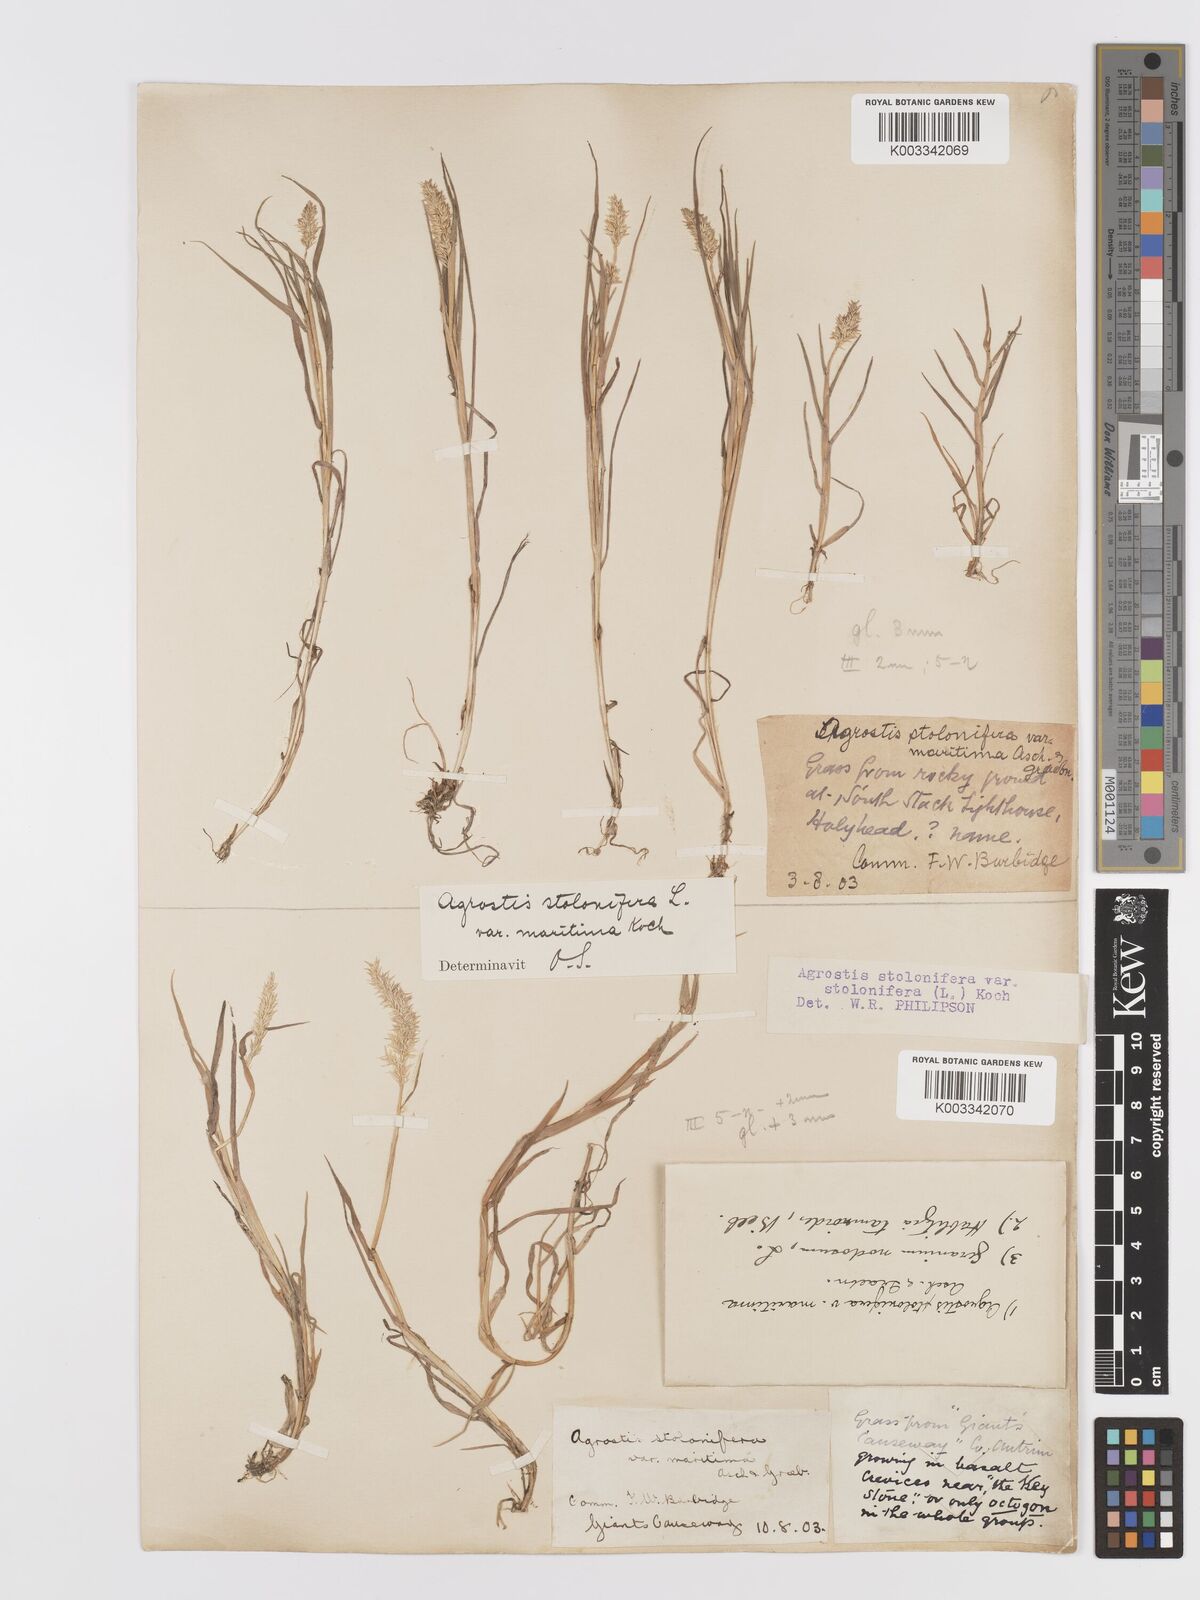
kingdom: Plantae
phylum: Tracheophyta
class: Liliopsida
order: Poales
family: Poaceae
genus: Agrostis
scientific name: Agrostis stolonifera
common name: Creeping bentgrass
